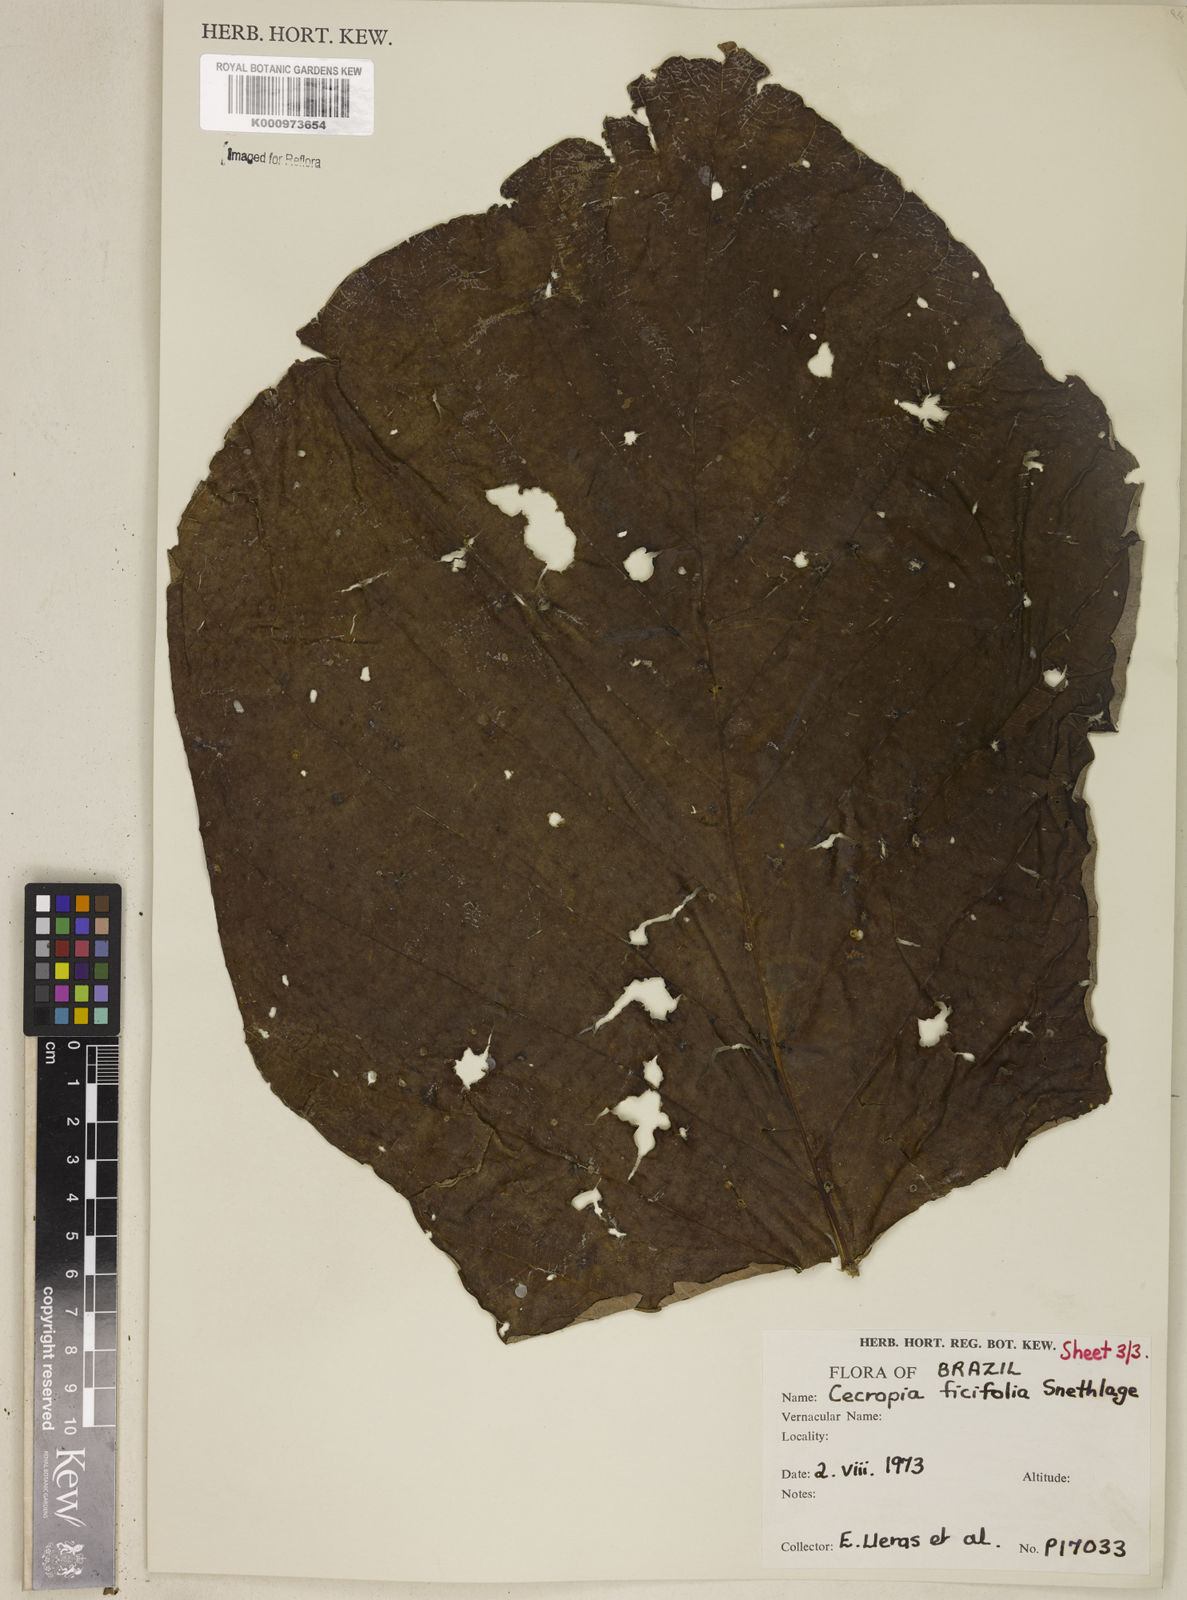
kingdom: Plantae
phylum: Tracheophyta
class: Magnoliopsida
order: Rosales
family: Urticaceae
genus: Cecropia
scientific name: Cecropia ficifolia
